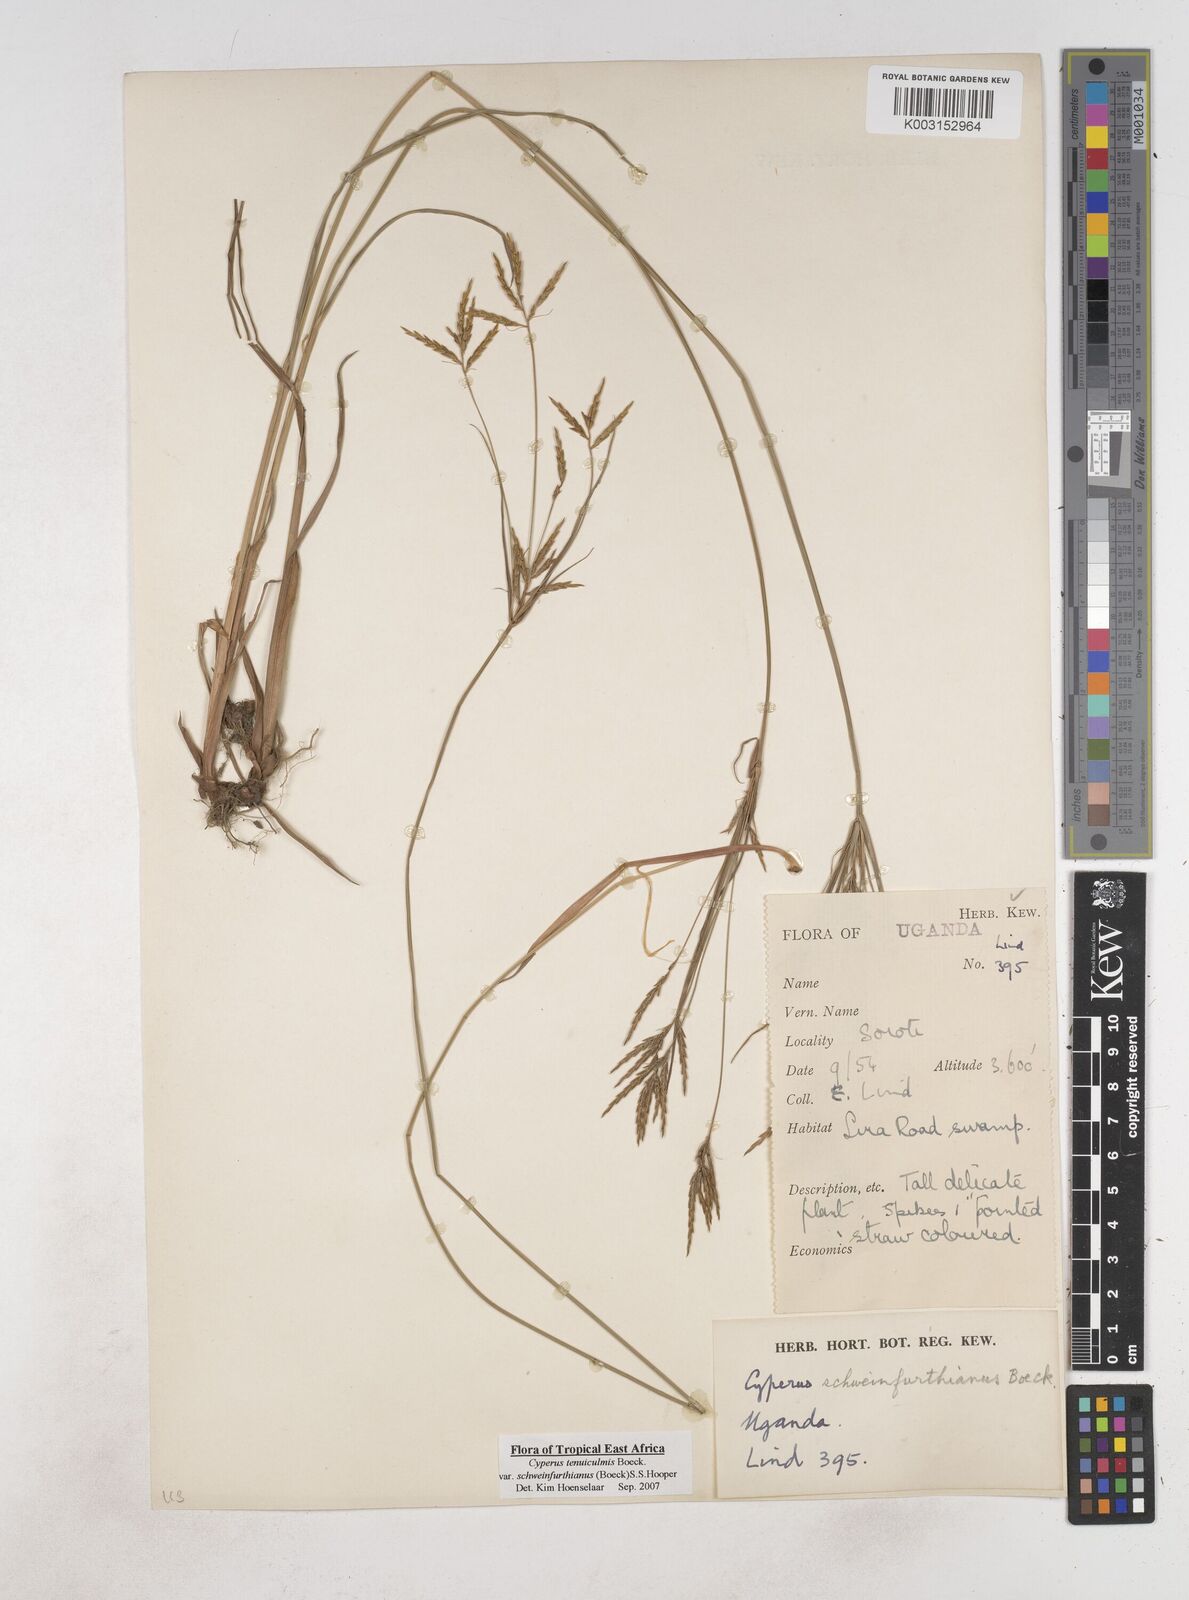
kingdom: Plantae
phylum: Tracheophyta
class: Liliopsida
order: Poales
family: Cyperaceae
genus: Cyperus
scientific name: Cyperus tenuiculmis
